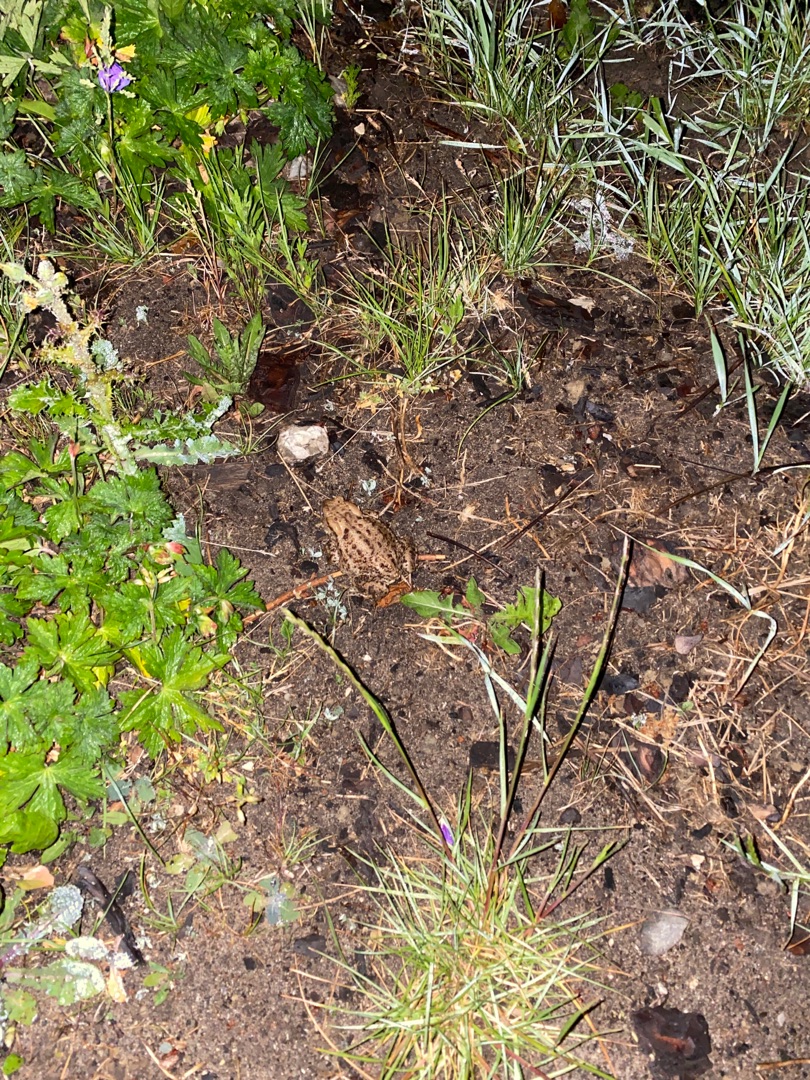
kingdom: Animalia
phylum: Chordata
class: Amphibia
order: Anura
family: Bufonidae
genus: Bufo
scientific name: Bufo bufo
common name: Skrubtudse
